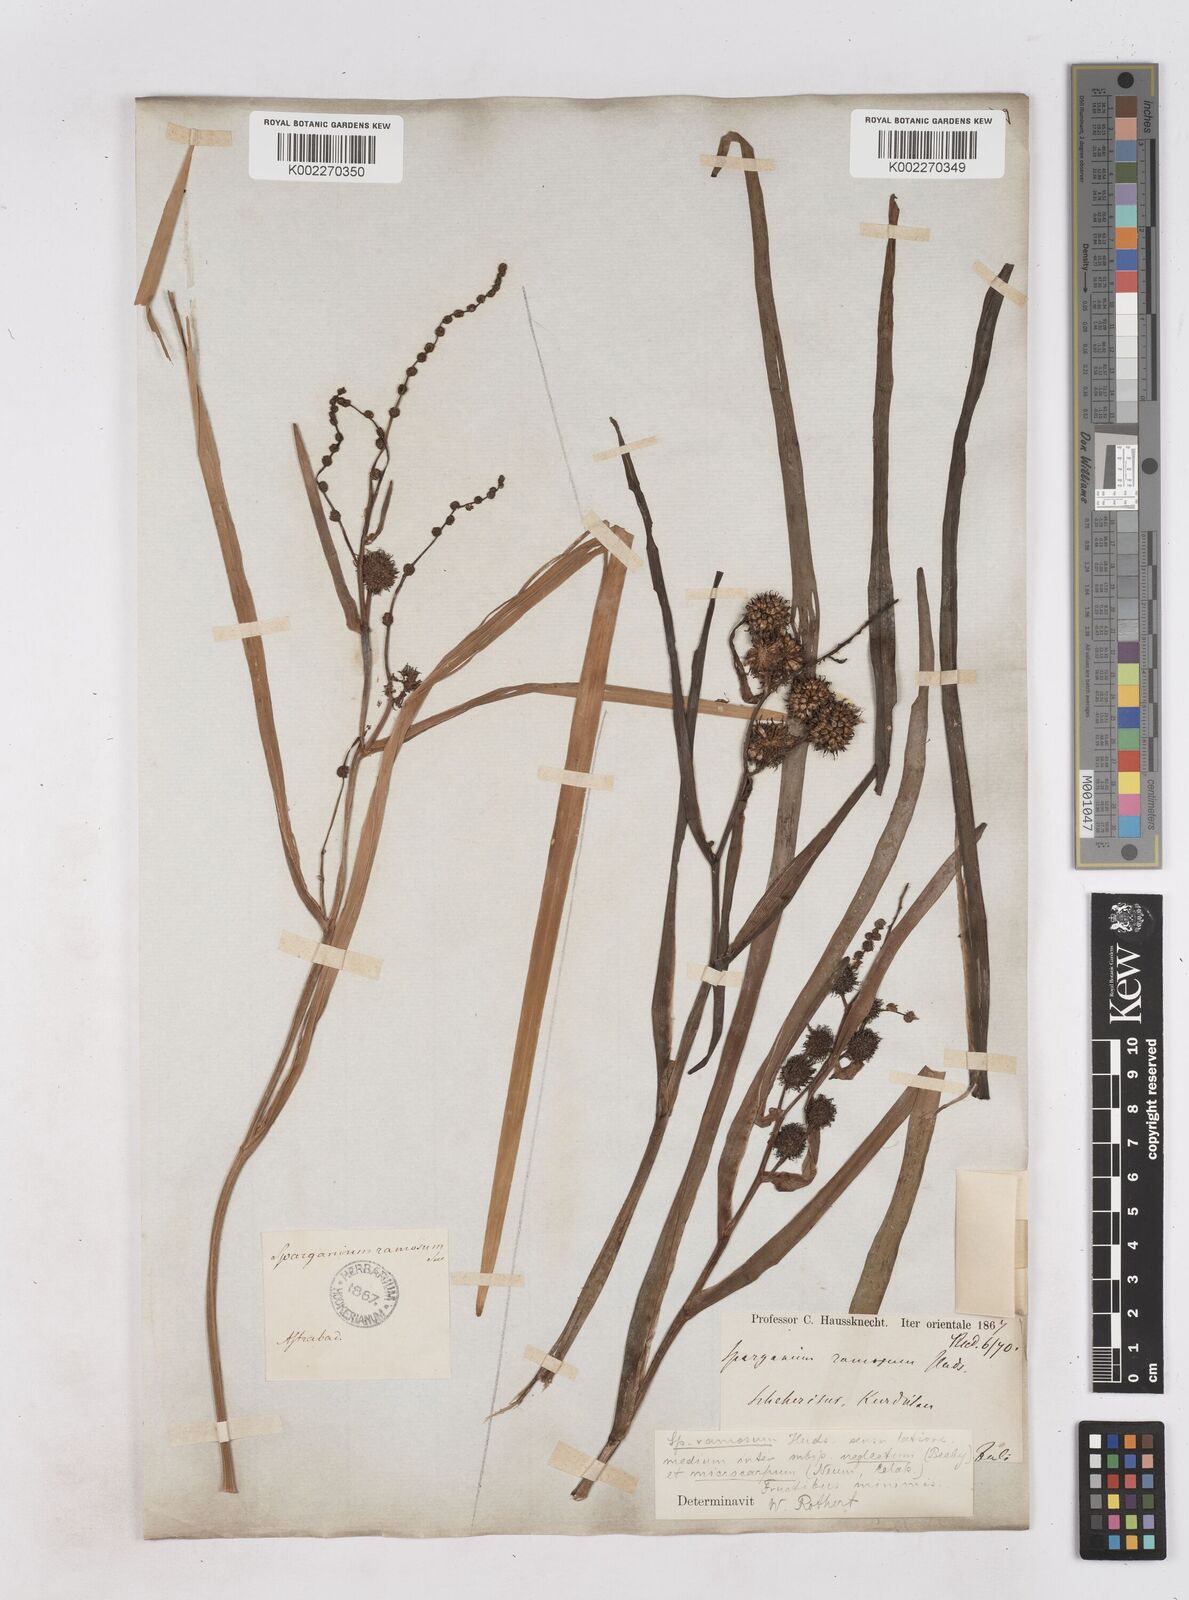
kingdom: Plantae
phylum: Tracheophyta
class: Liliopsida
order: Poales
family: Typhaceae
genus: Sparganium
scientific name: Sparganium
